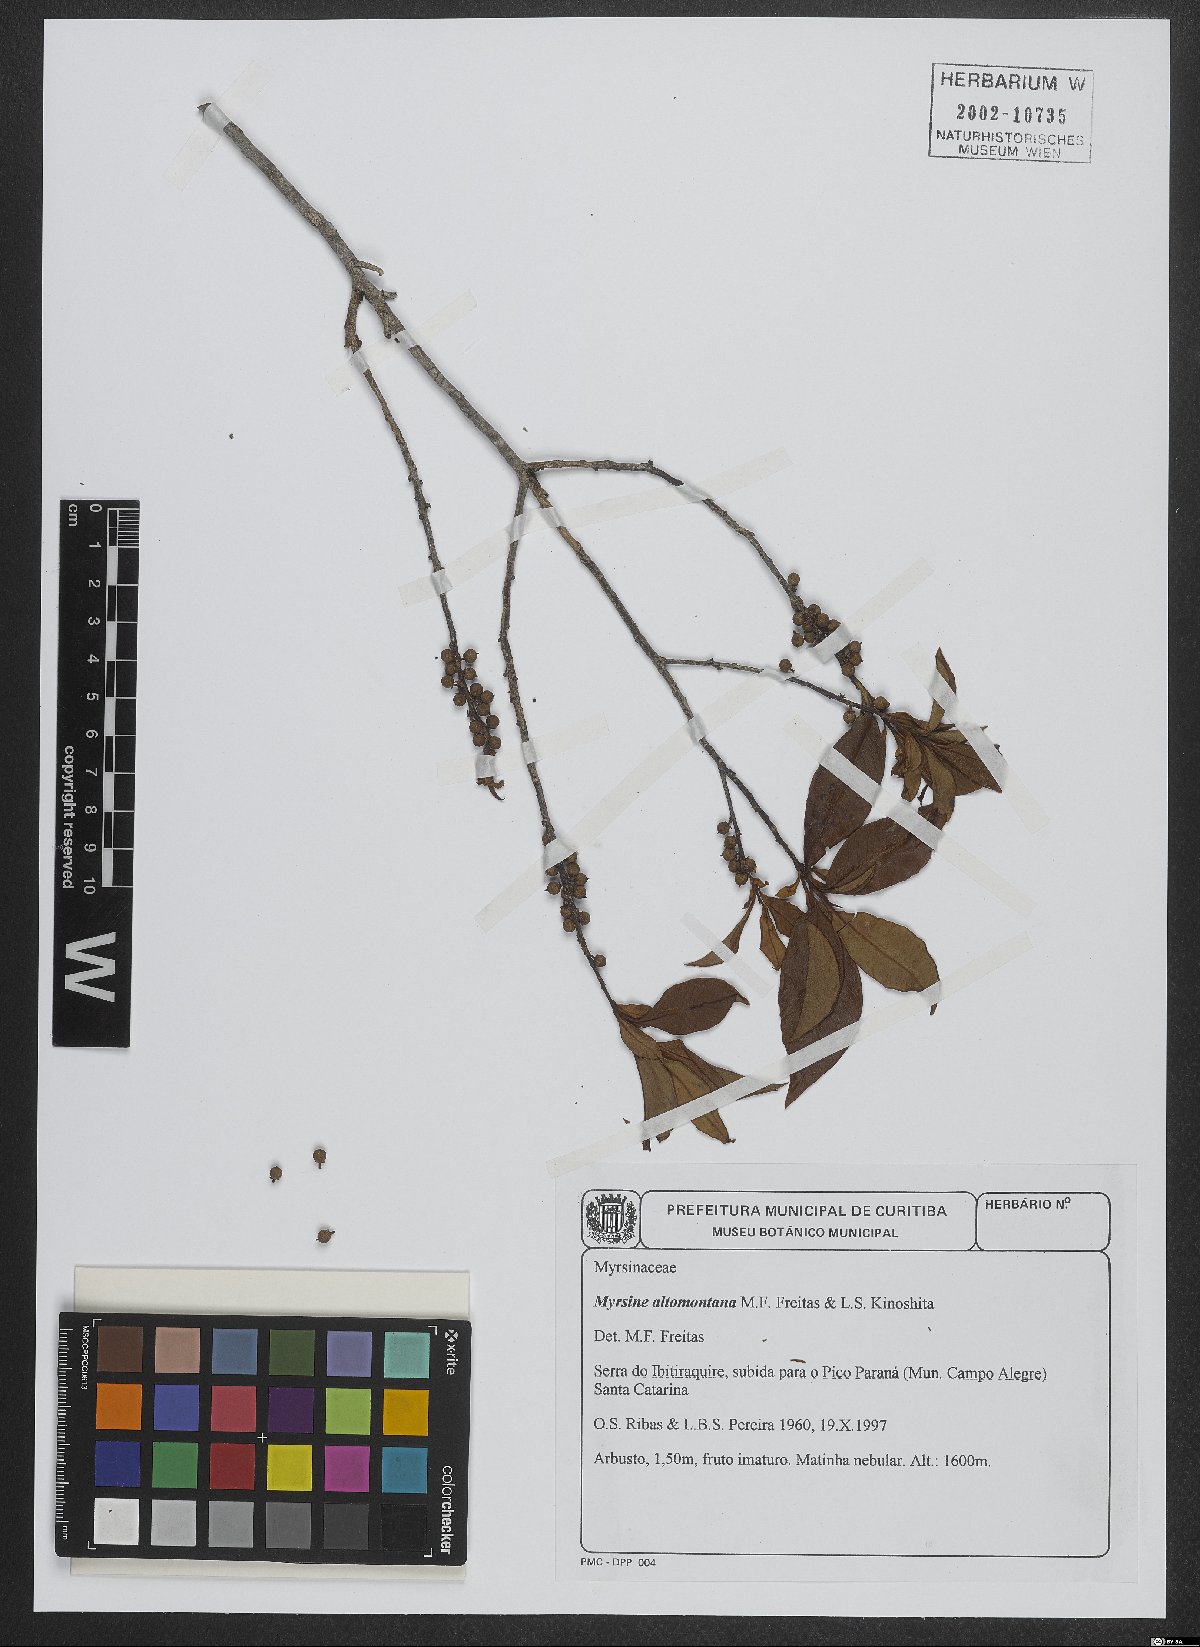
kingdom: Plantae
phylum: Tracheophyta
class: Magnoliopsida
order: Ericales
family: Primulaceae
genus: Myrsine
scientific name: Myrsine altomontana
